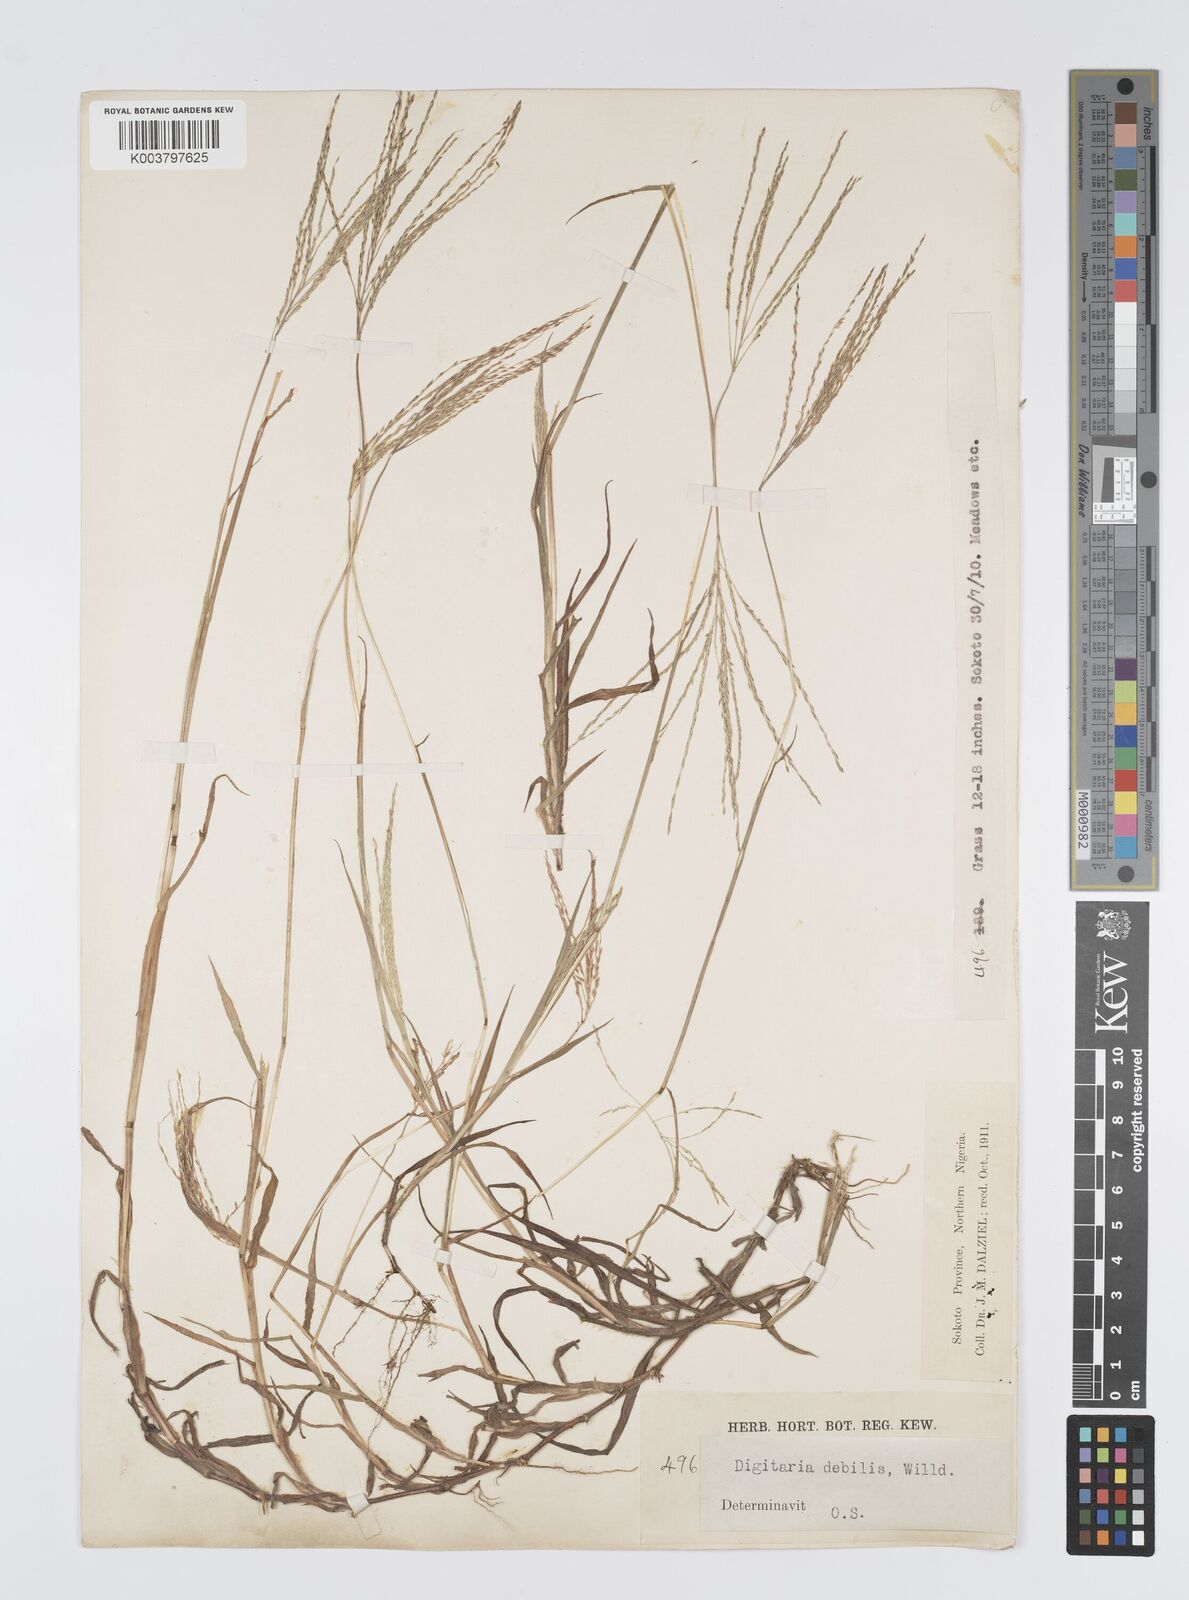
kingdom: Plantae
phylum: Tracheophyta
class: Liliopsida
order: Poales
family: Poaceae
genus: Digitaria
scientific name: Digitaria debilis
